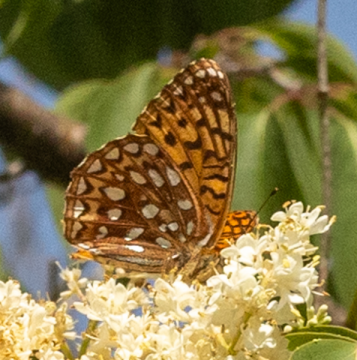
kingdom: Animalia
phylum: Arthropoda
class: Insecta
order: Lepidoptera
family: Nymphalidae
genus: Speyeria
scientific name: Speyeria atlantis
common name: Atlantis Fritillary
